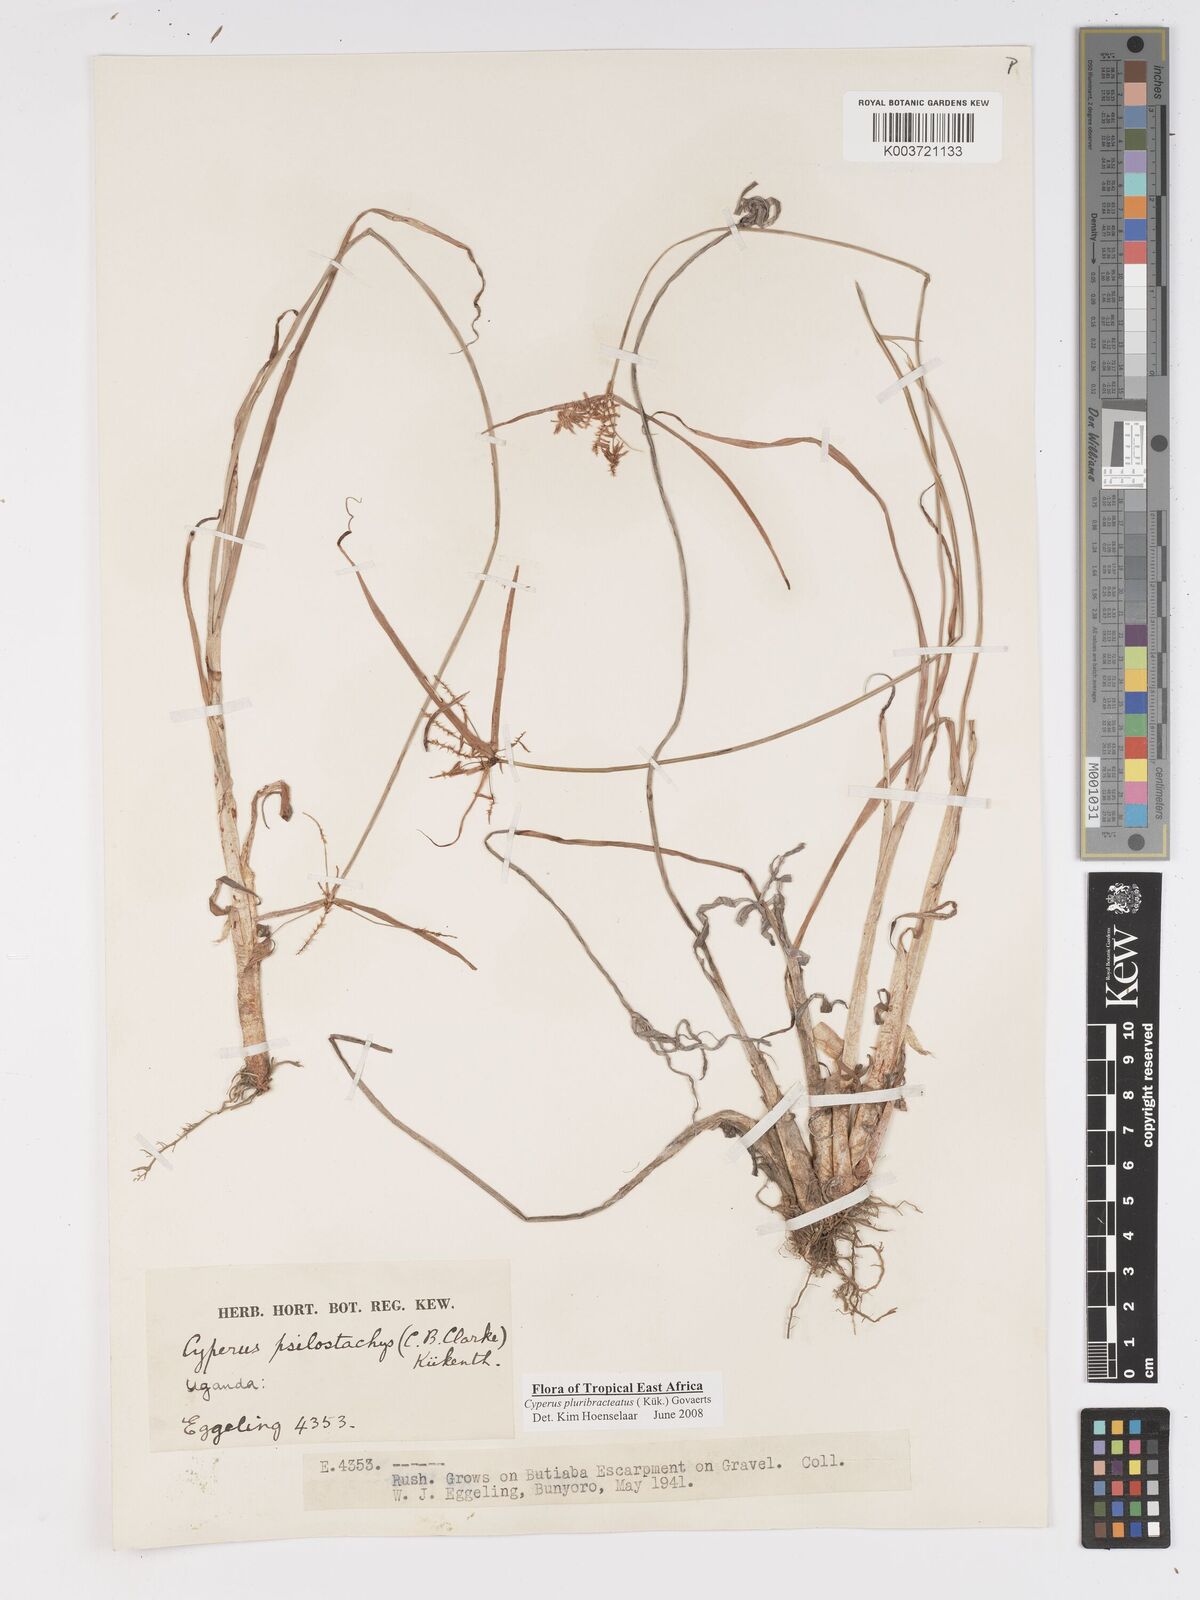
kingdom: Plantae
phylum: Tracheophyta
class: Liliopsida
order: Poales
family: Cyperaceae
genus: Cyperus
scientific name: Cyperus trigonellus
